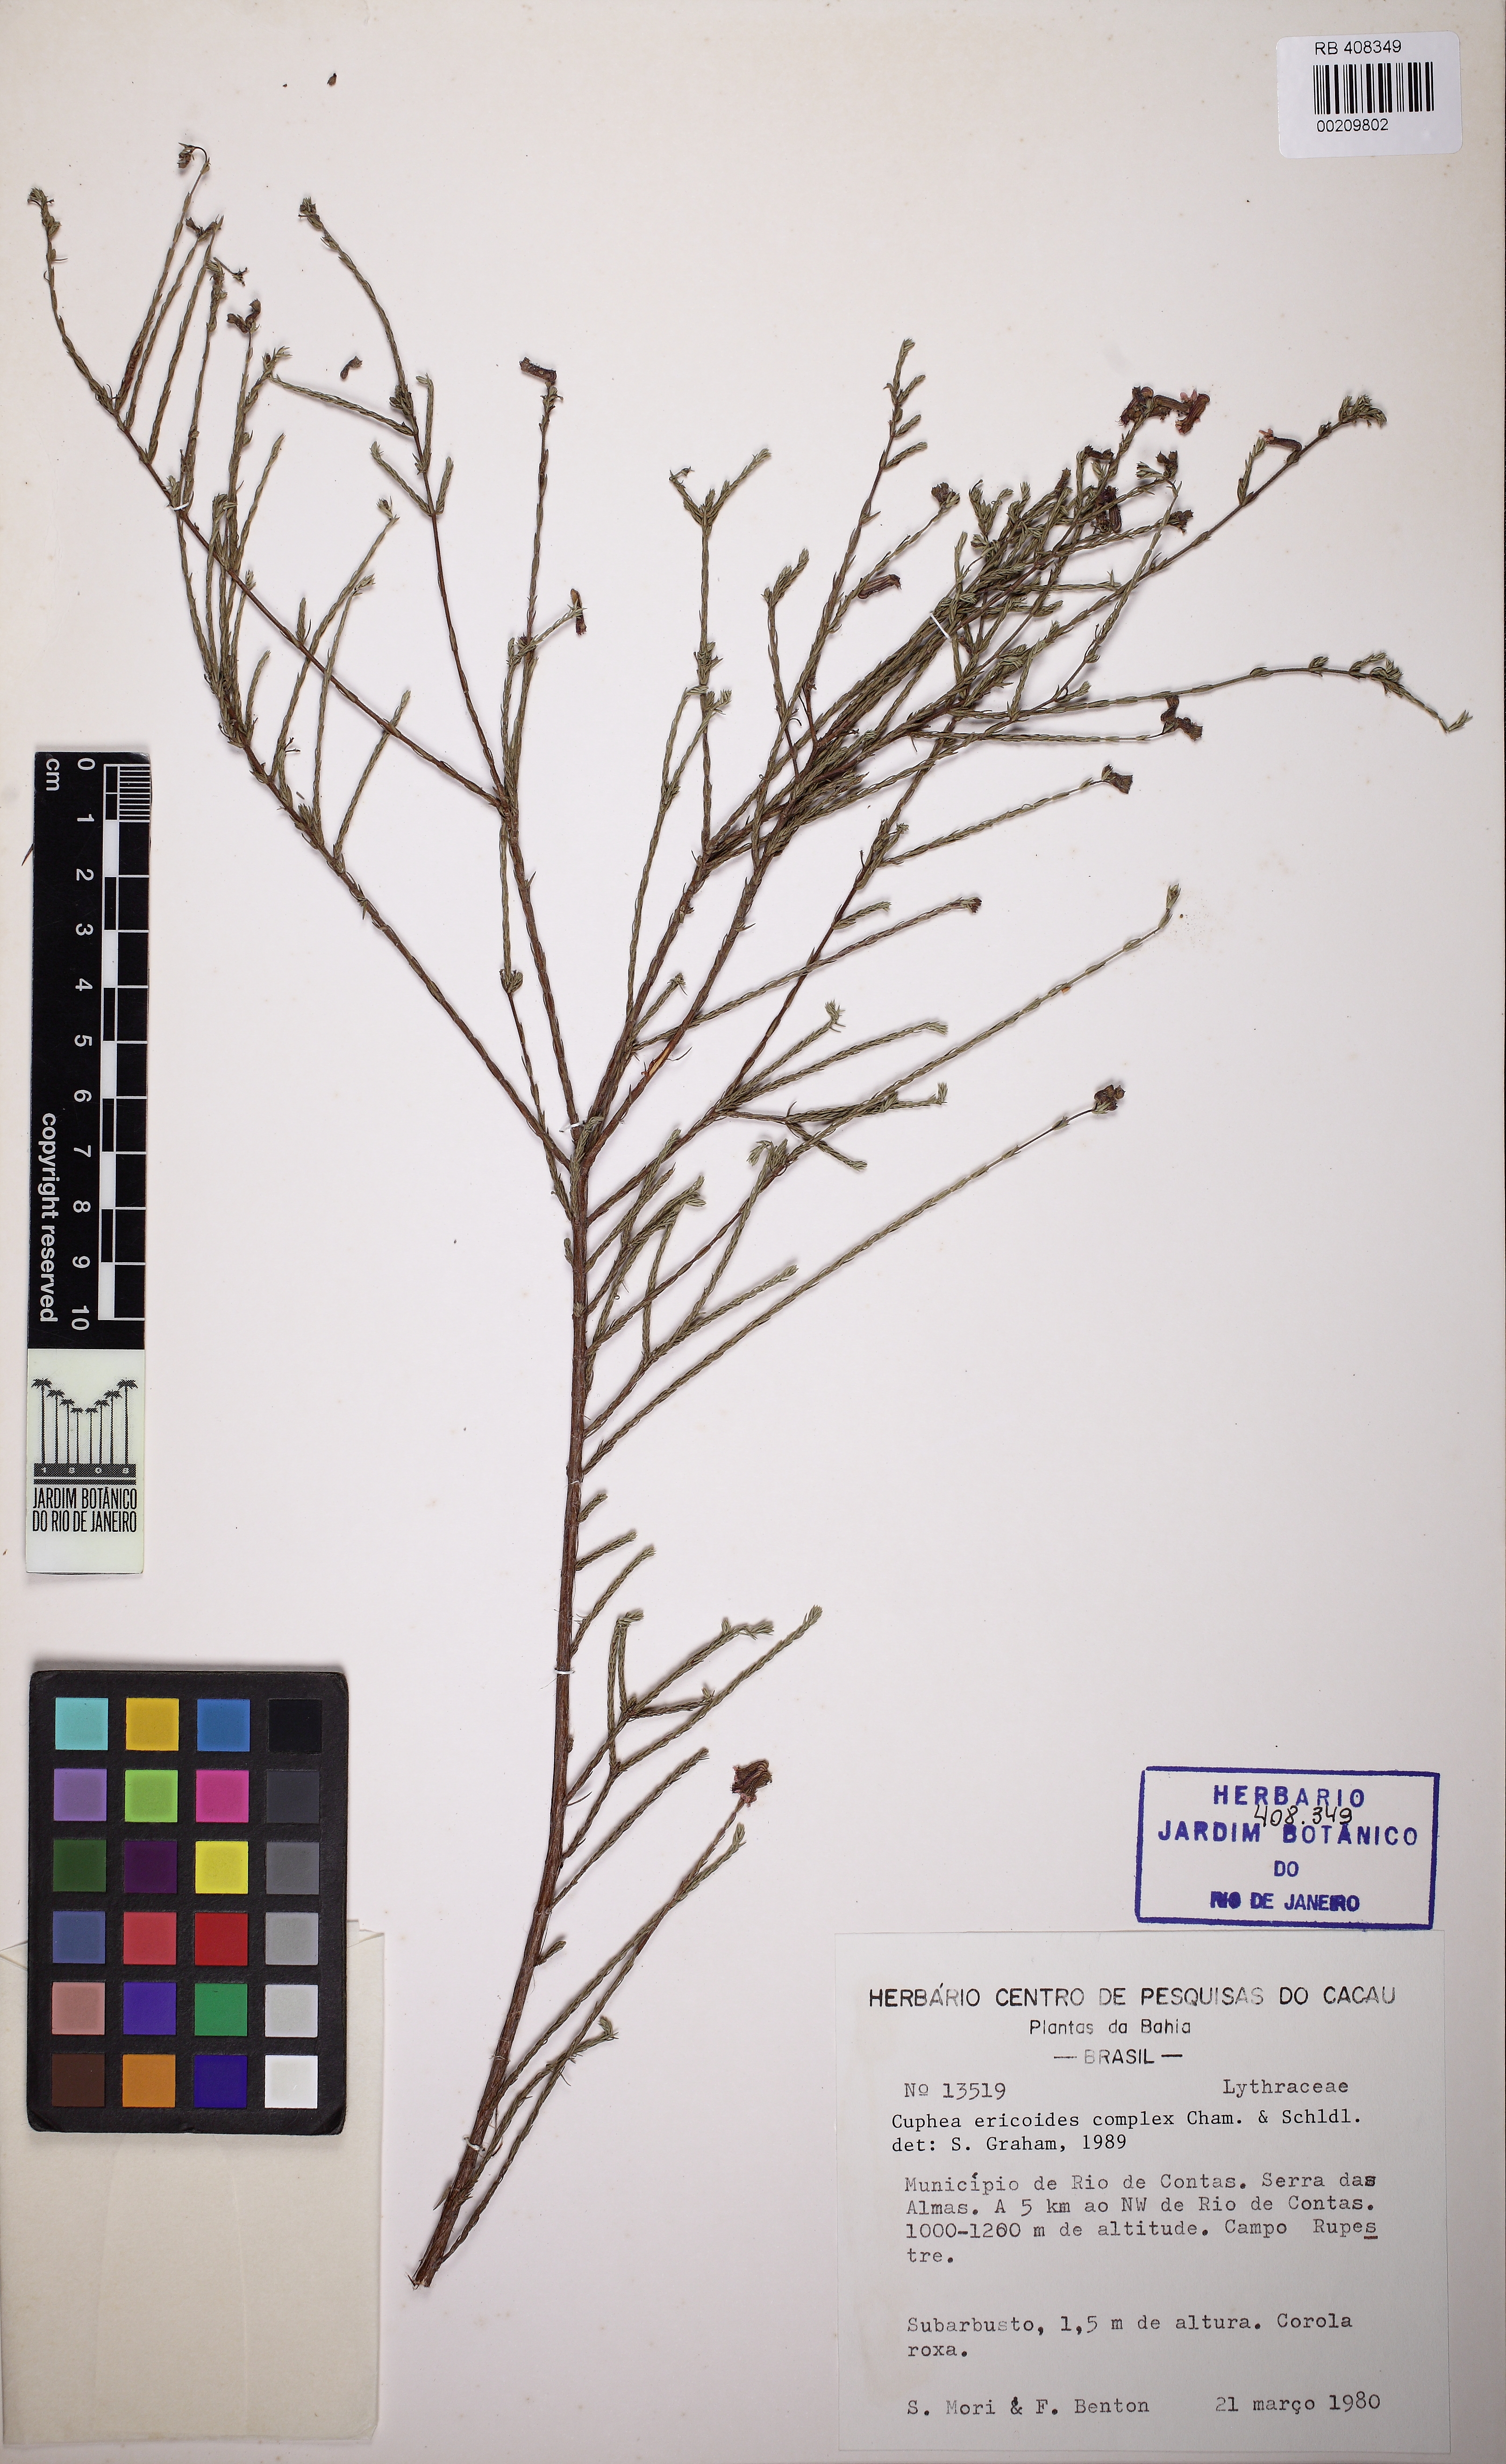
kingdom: Plantae
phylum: Tracheophyta
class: Magnoliopsida
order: Myrtales
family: Lythraceae
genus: Cuphea
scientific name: Cuphea ericoides
